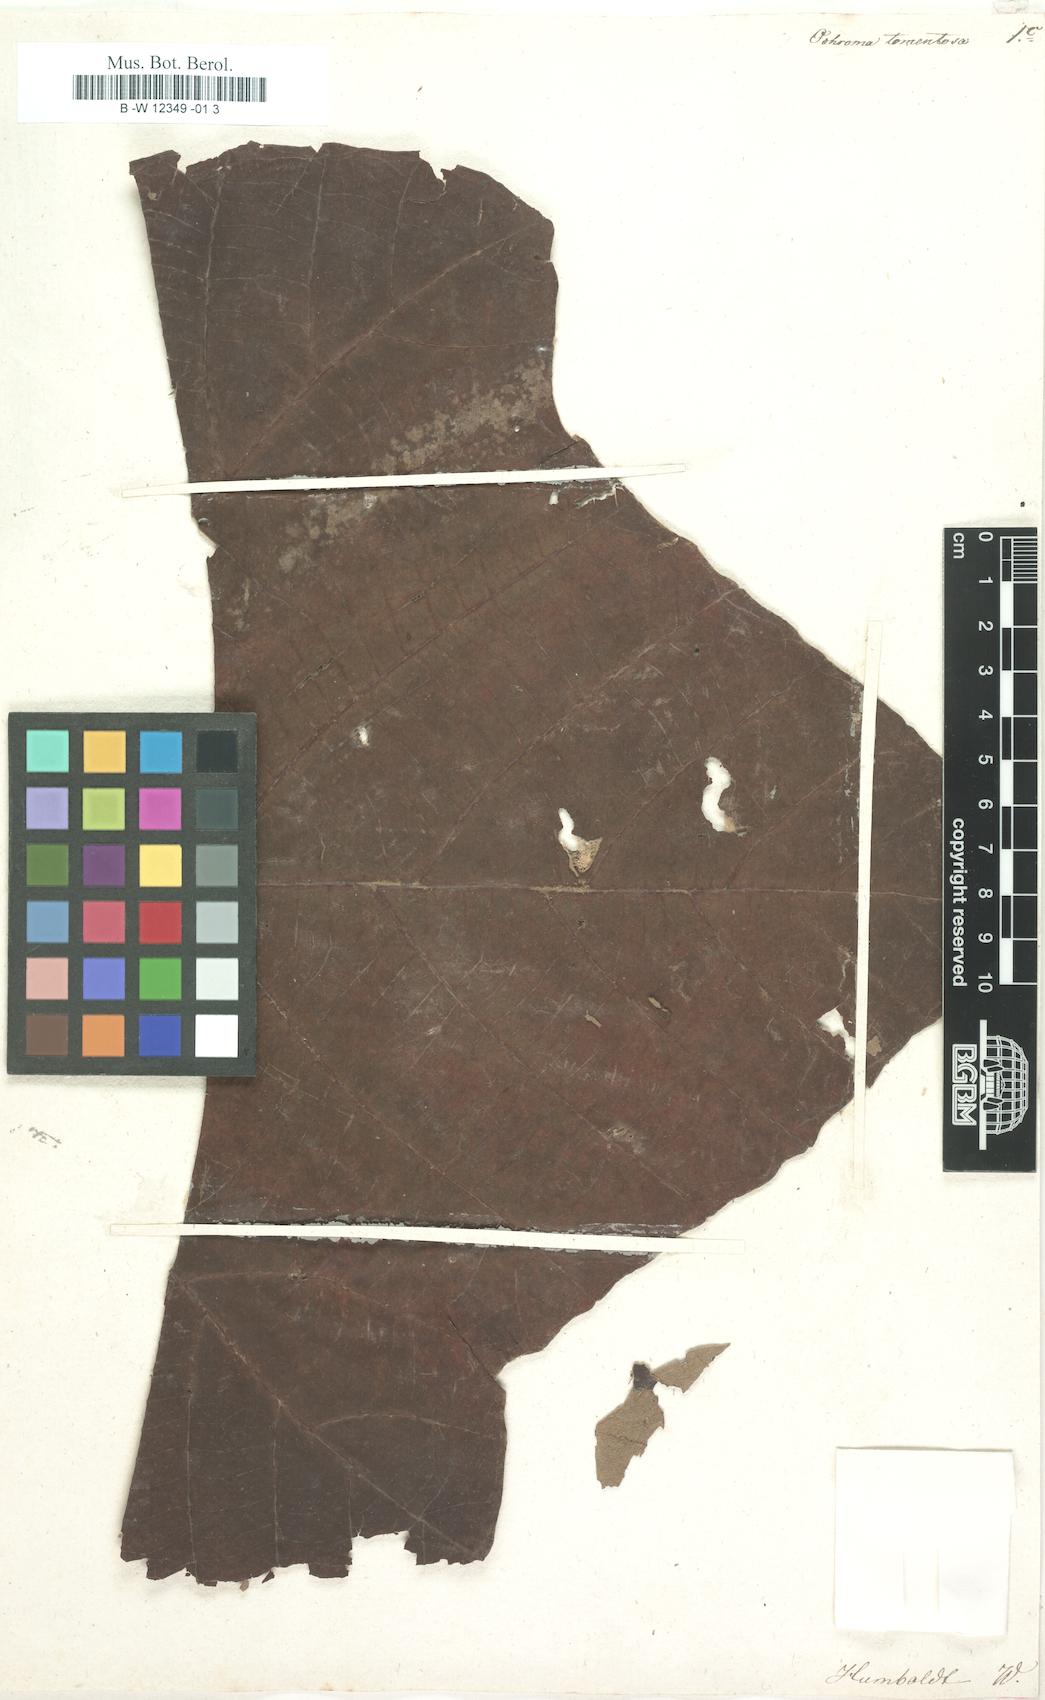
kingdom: Plantae
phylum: Tracheophyta
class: Magnoliopsida
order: Malvales
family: Malvaceae
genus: Ochroma
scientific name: Ochroma pyramidale
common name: Balsa
